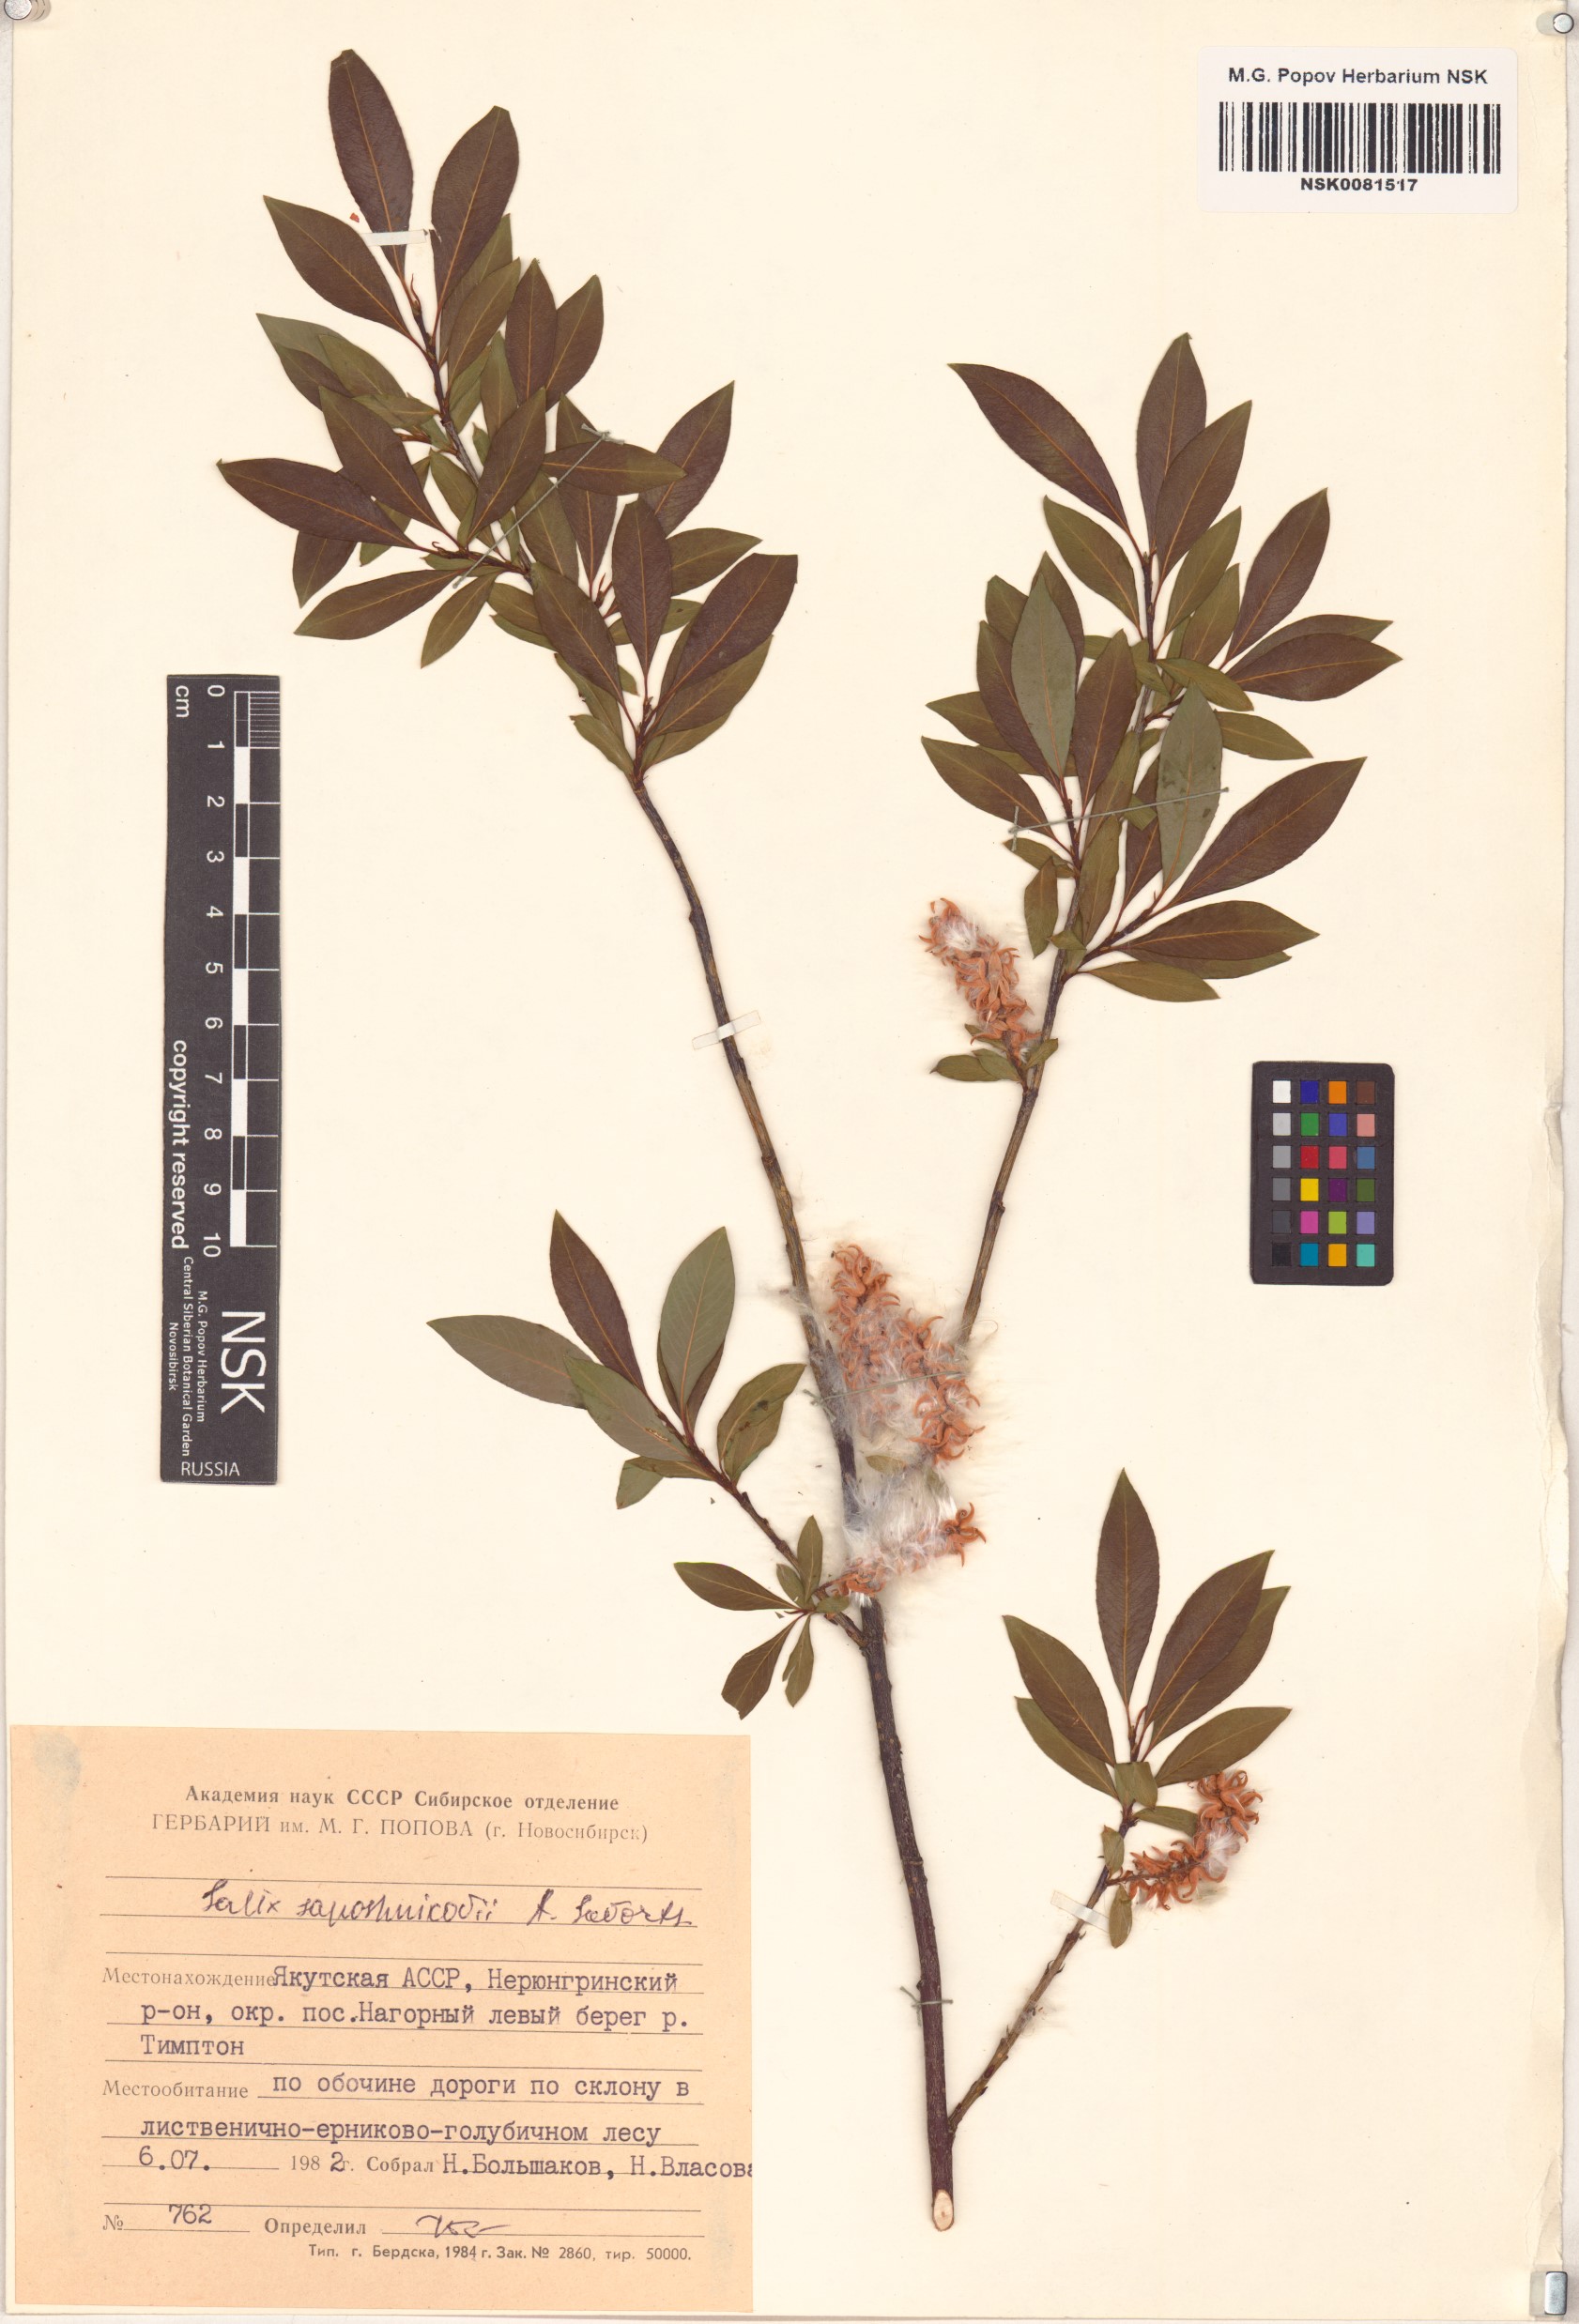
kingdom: Plantae
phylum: Tracheophyta
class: Magnoliopsida
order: Malpighiales
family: Salicaceae
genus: Salix
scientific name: Salix saposhnikovii
